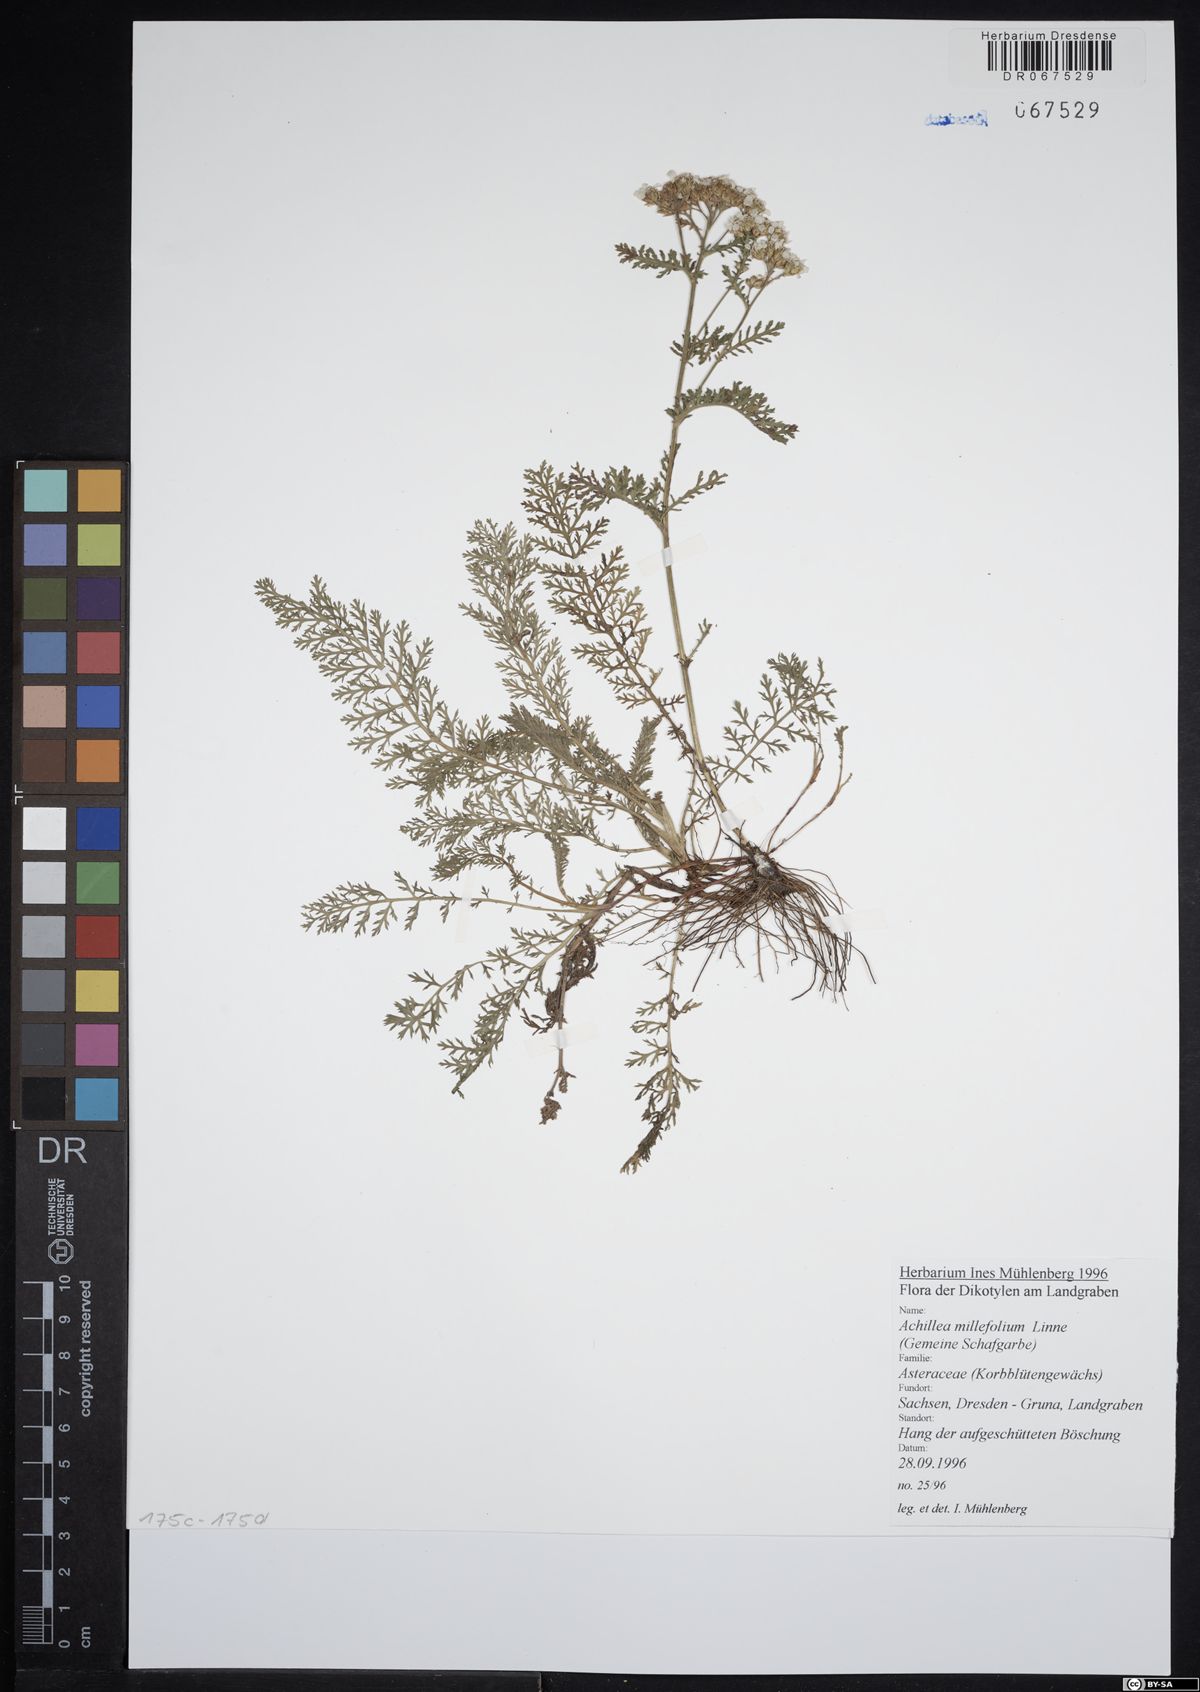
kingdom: Plantae
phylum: Tracheophyta
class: Magnoliopsida
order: Asterales
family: Asteraceae
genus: Achillea
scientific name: Achillea millefolium
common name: Yarrow
